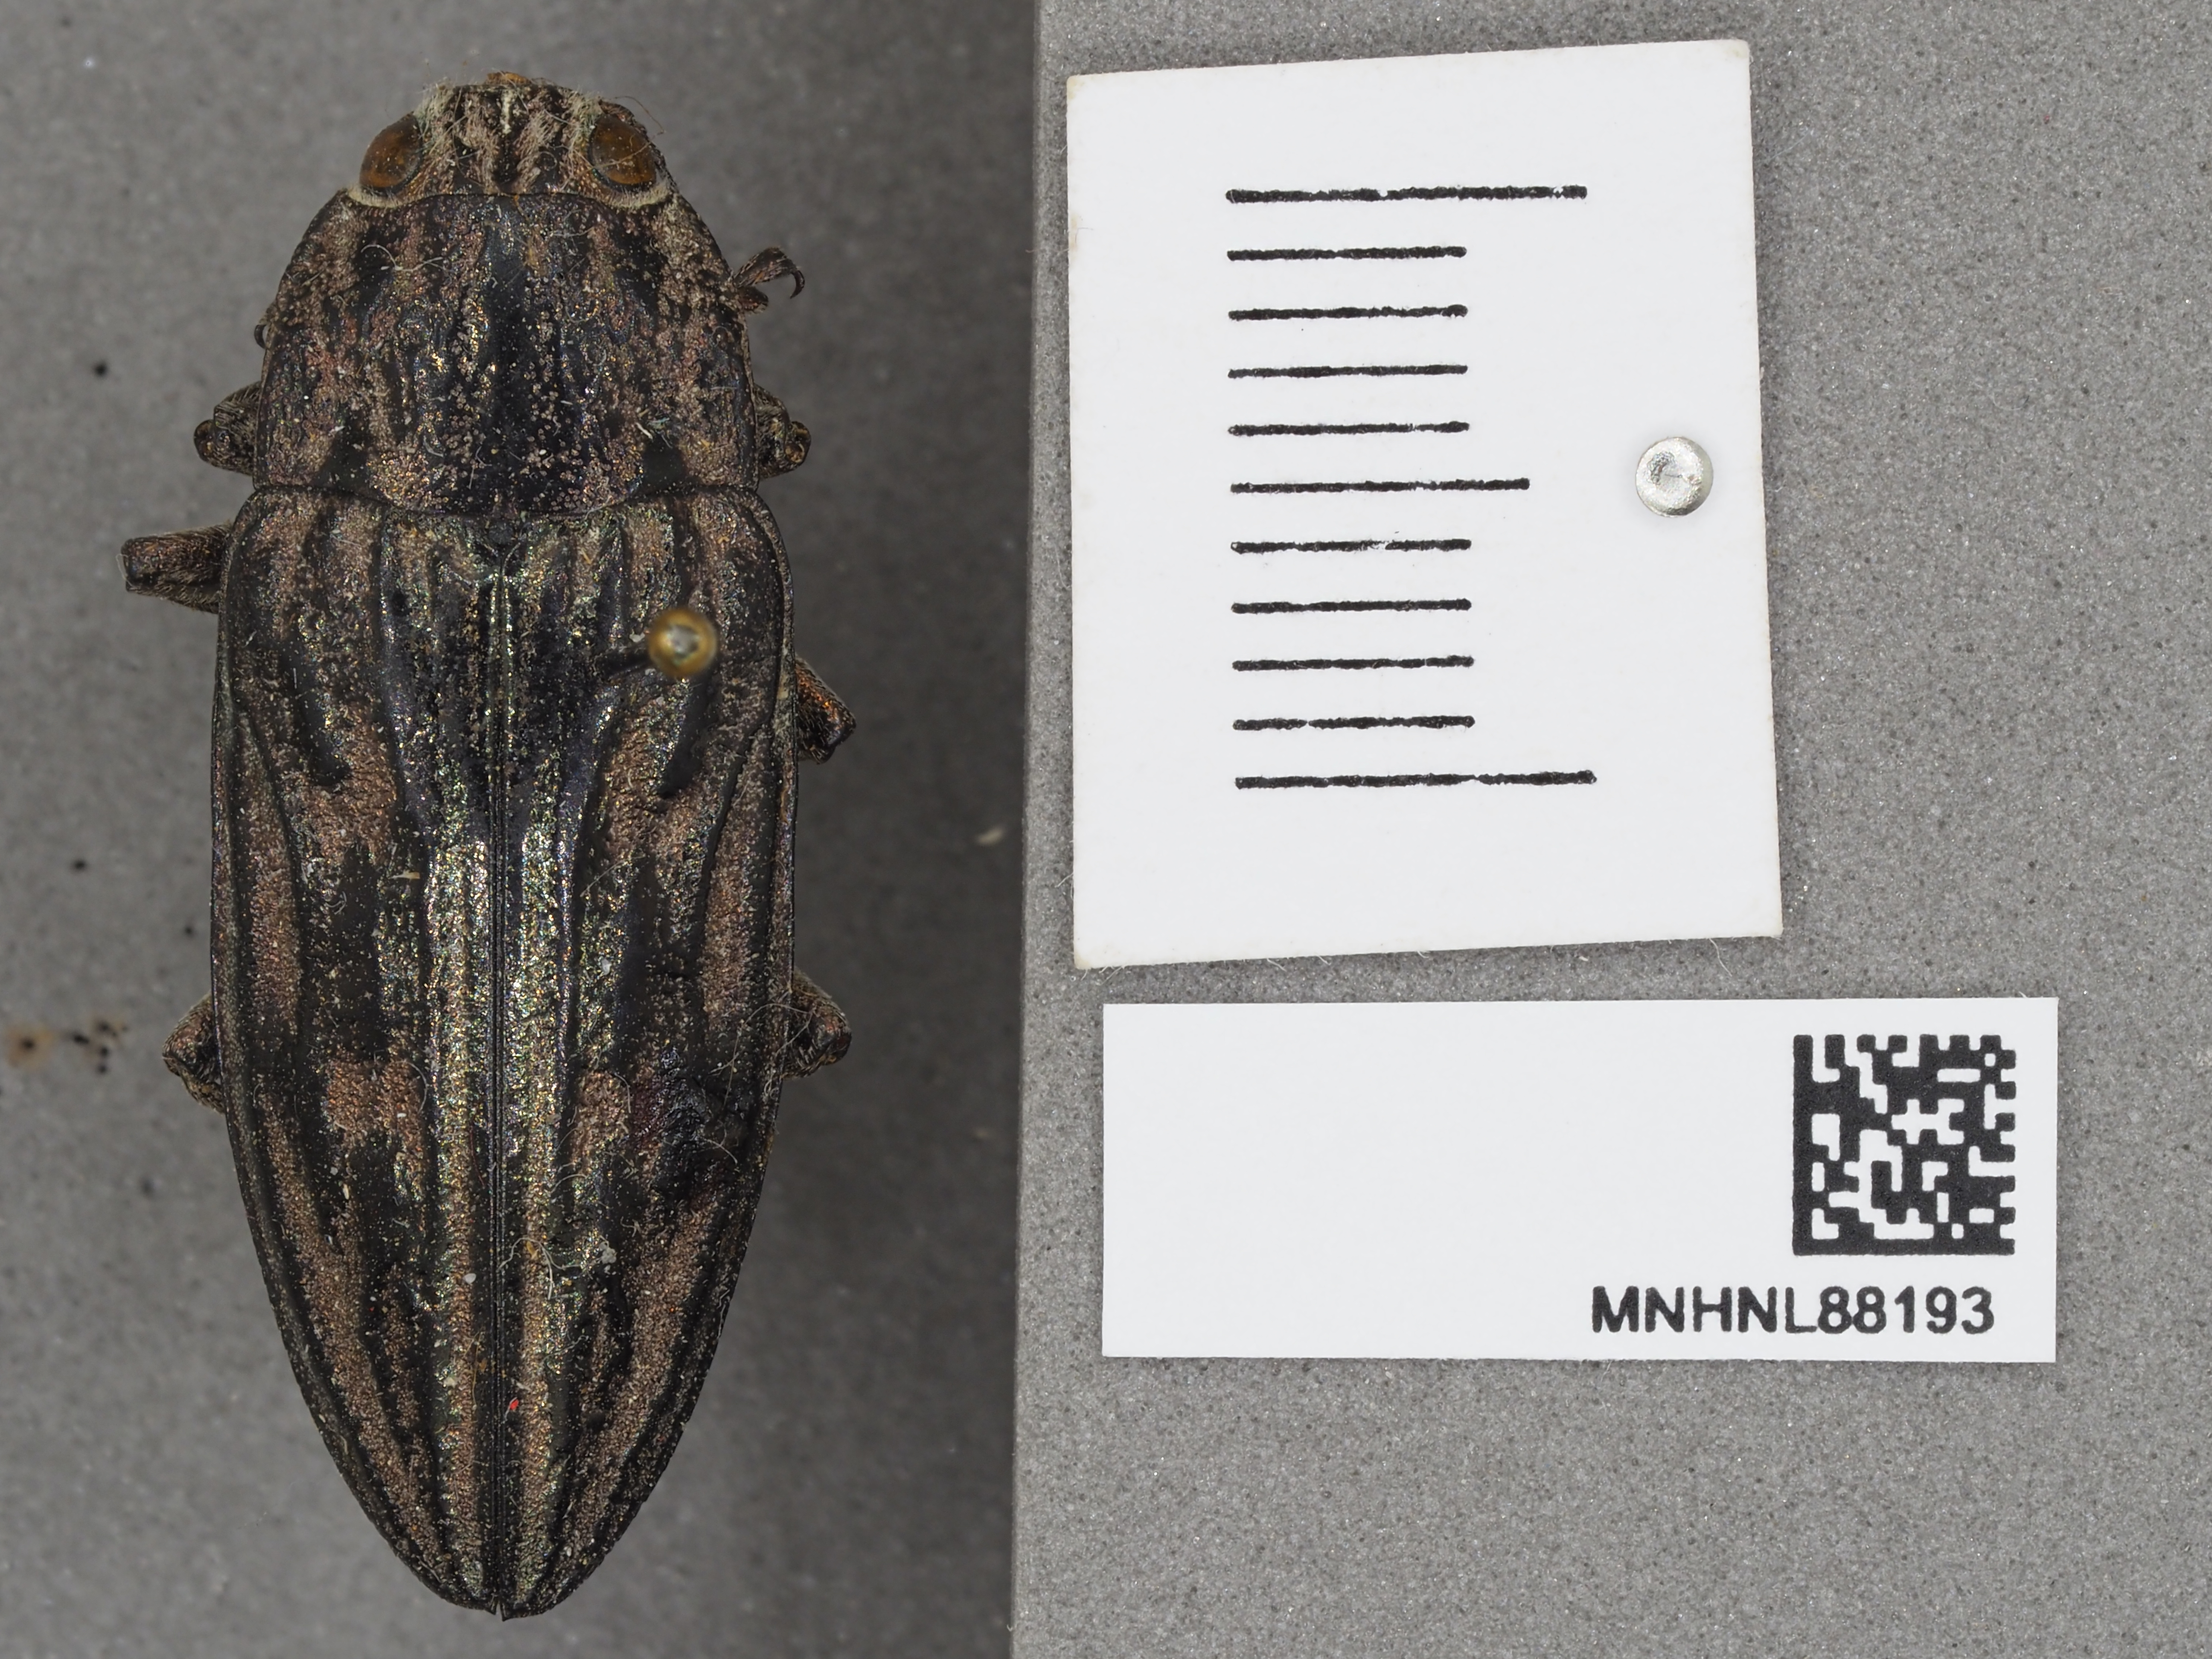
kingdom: Animalia
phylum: Arthropoda
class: Insecta
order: Coleoptera
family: Buprestidae
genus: Chalcophora
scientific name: Chalcophora mariana
